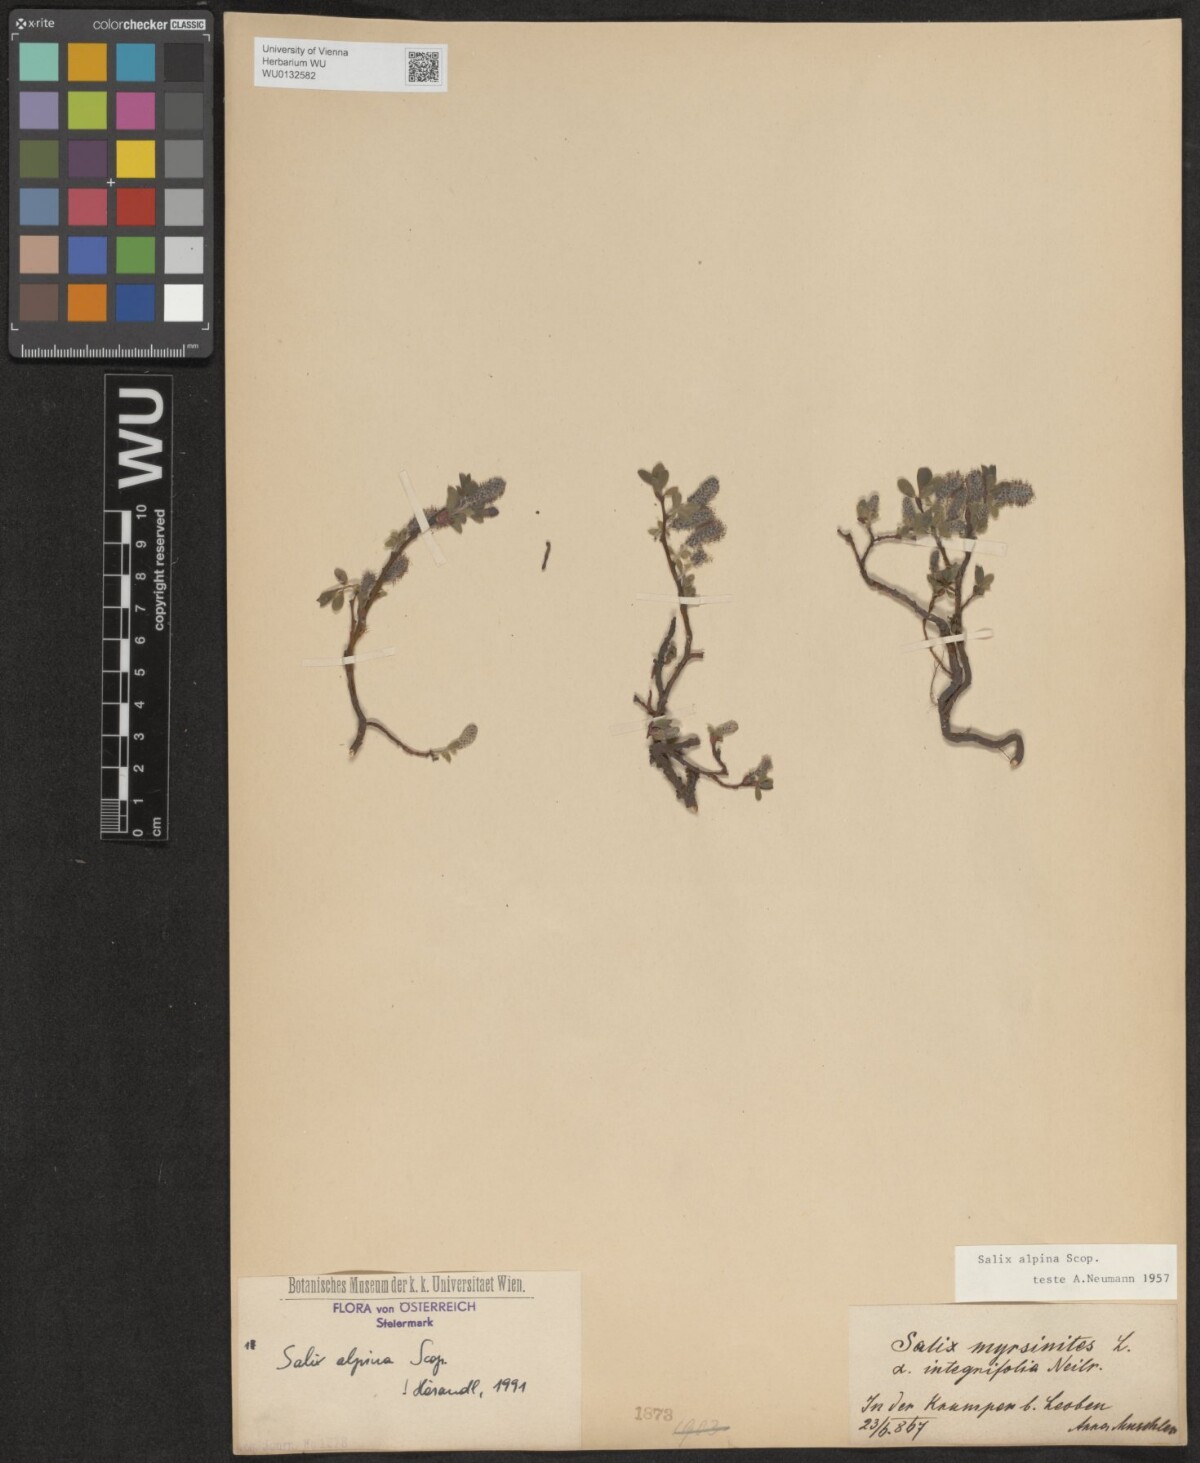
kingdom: Plantae
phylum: Tracheophyta
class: Magnoliopsida
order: Malpighiales
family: Salicaceae
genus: Salix
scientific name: Salix alpina
